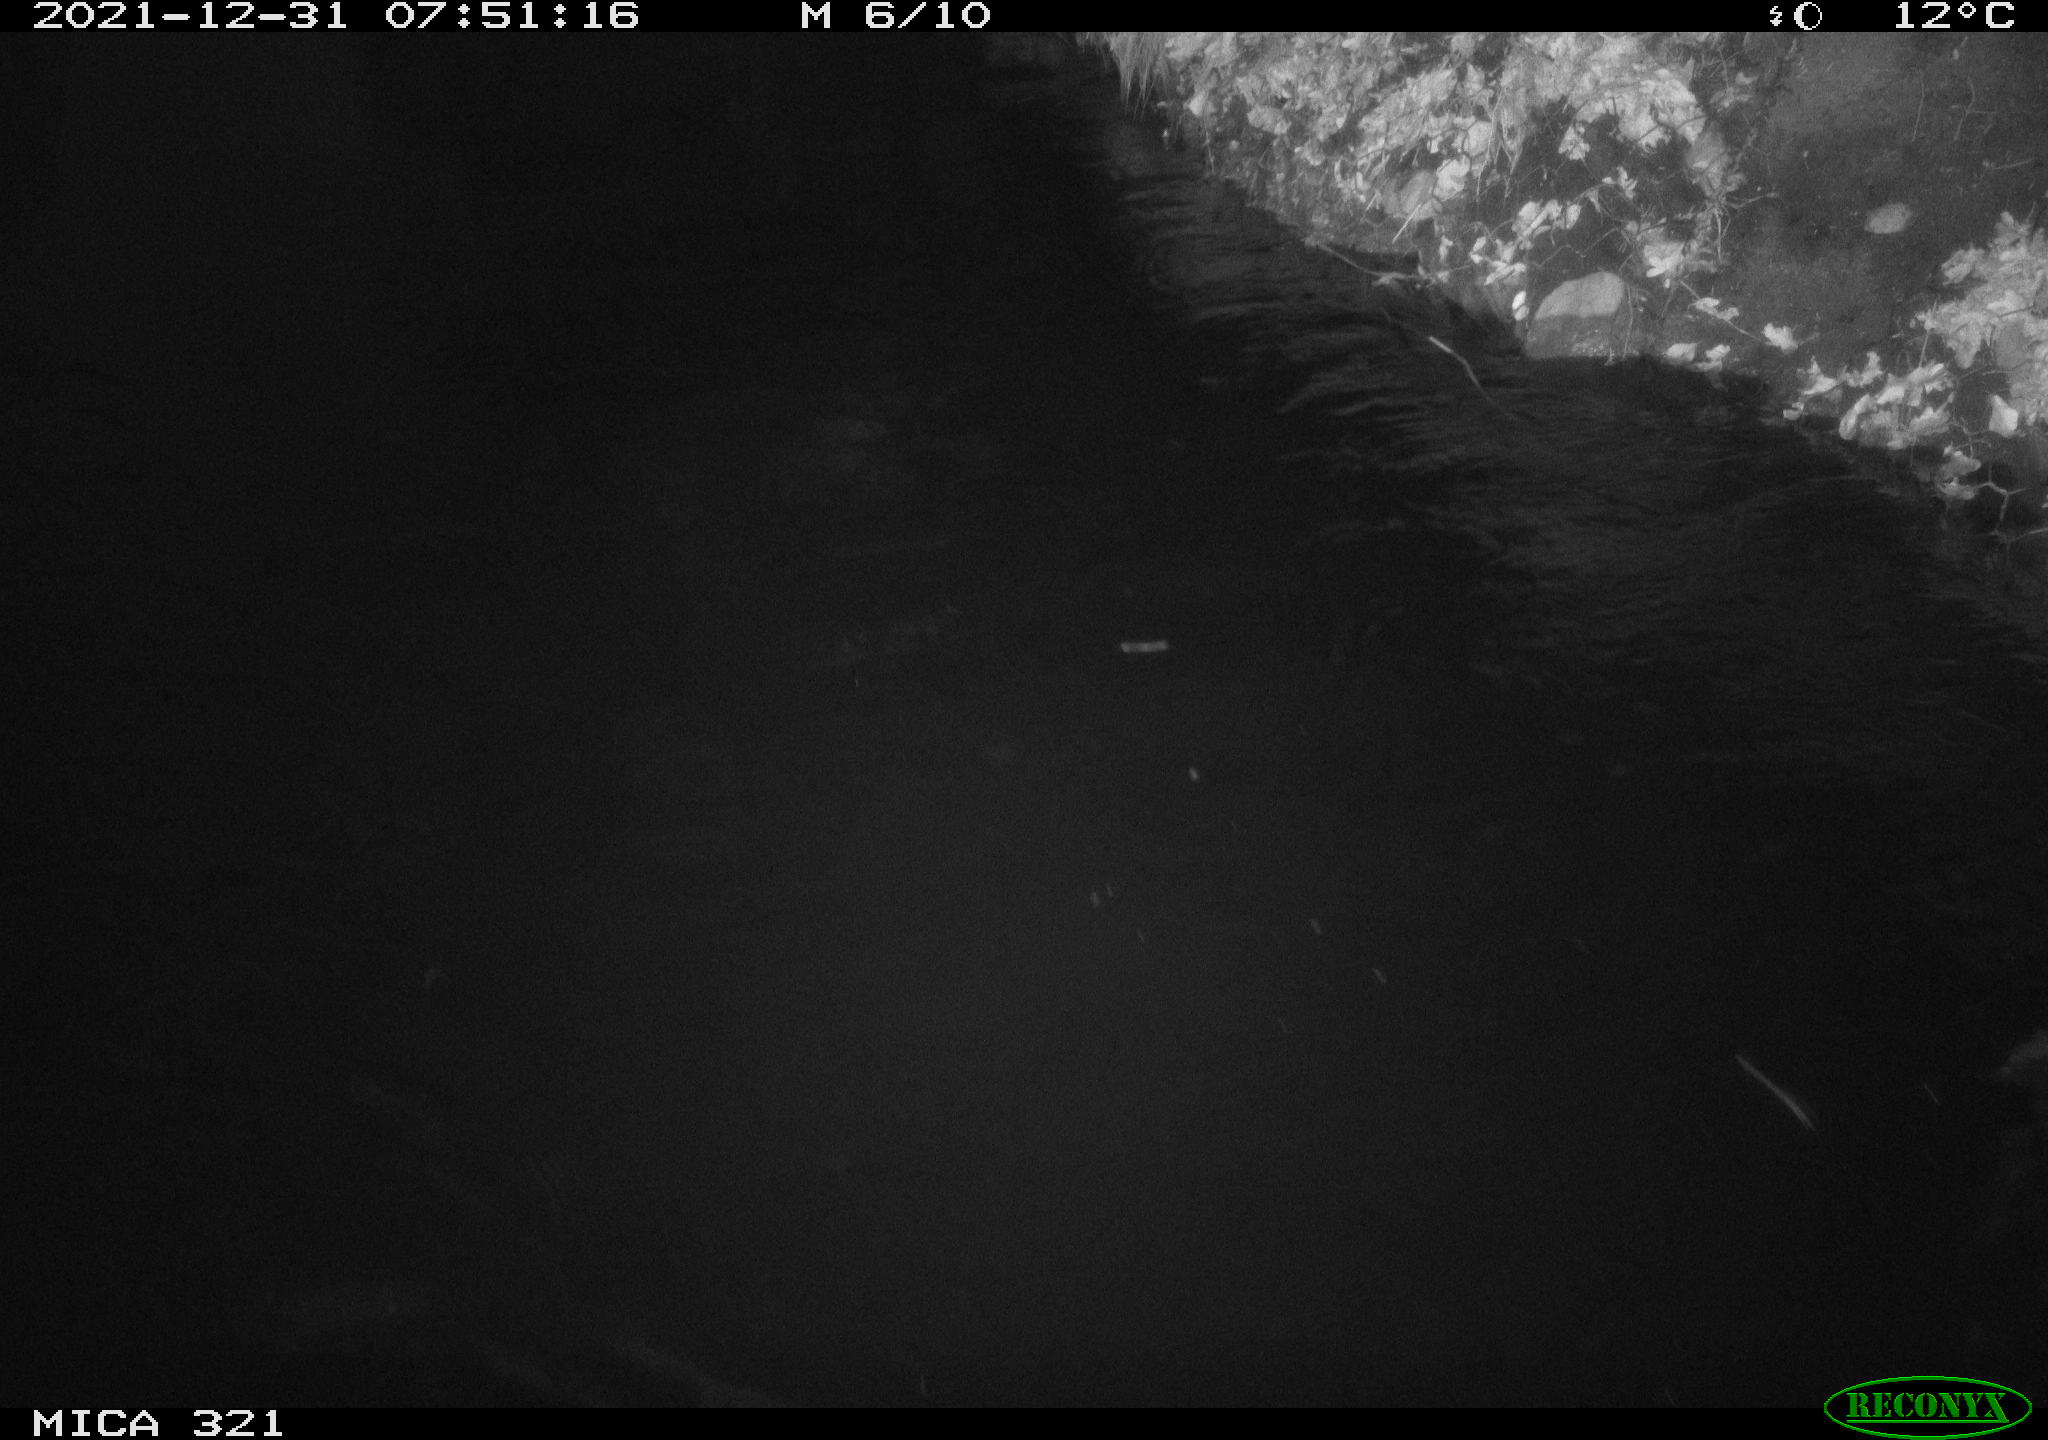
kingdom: Animalia
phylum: Chordata
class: Aves
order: Anseriformes
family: Anatidae
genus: Anas
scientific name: Anas
